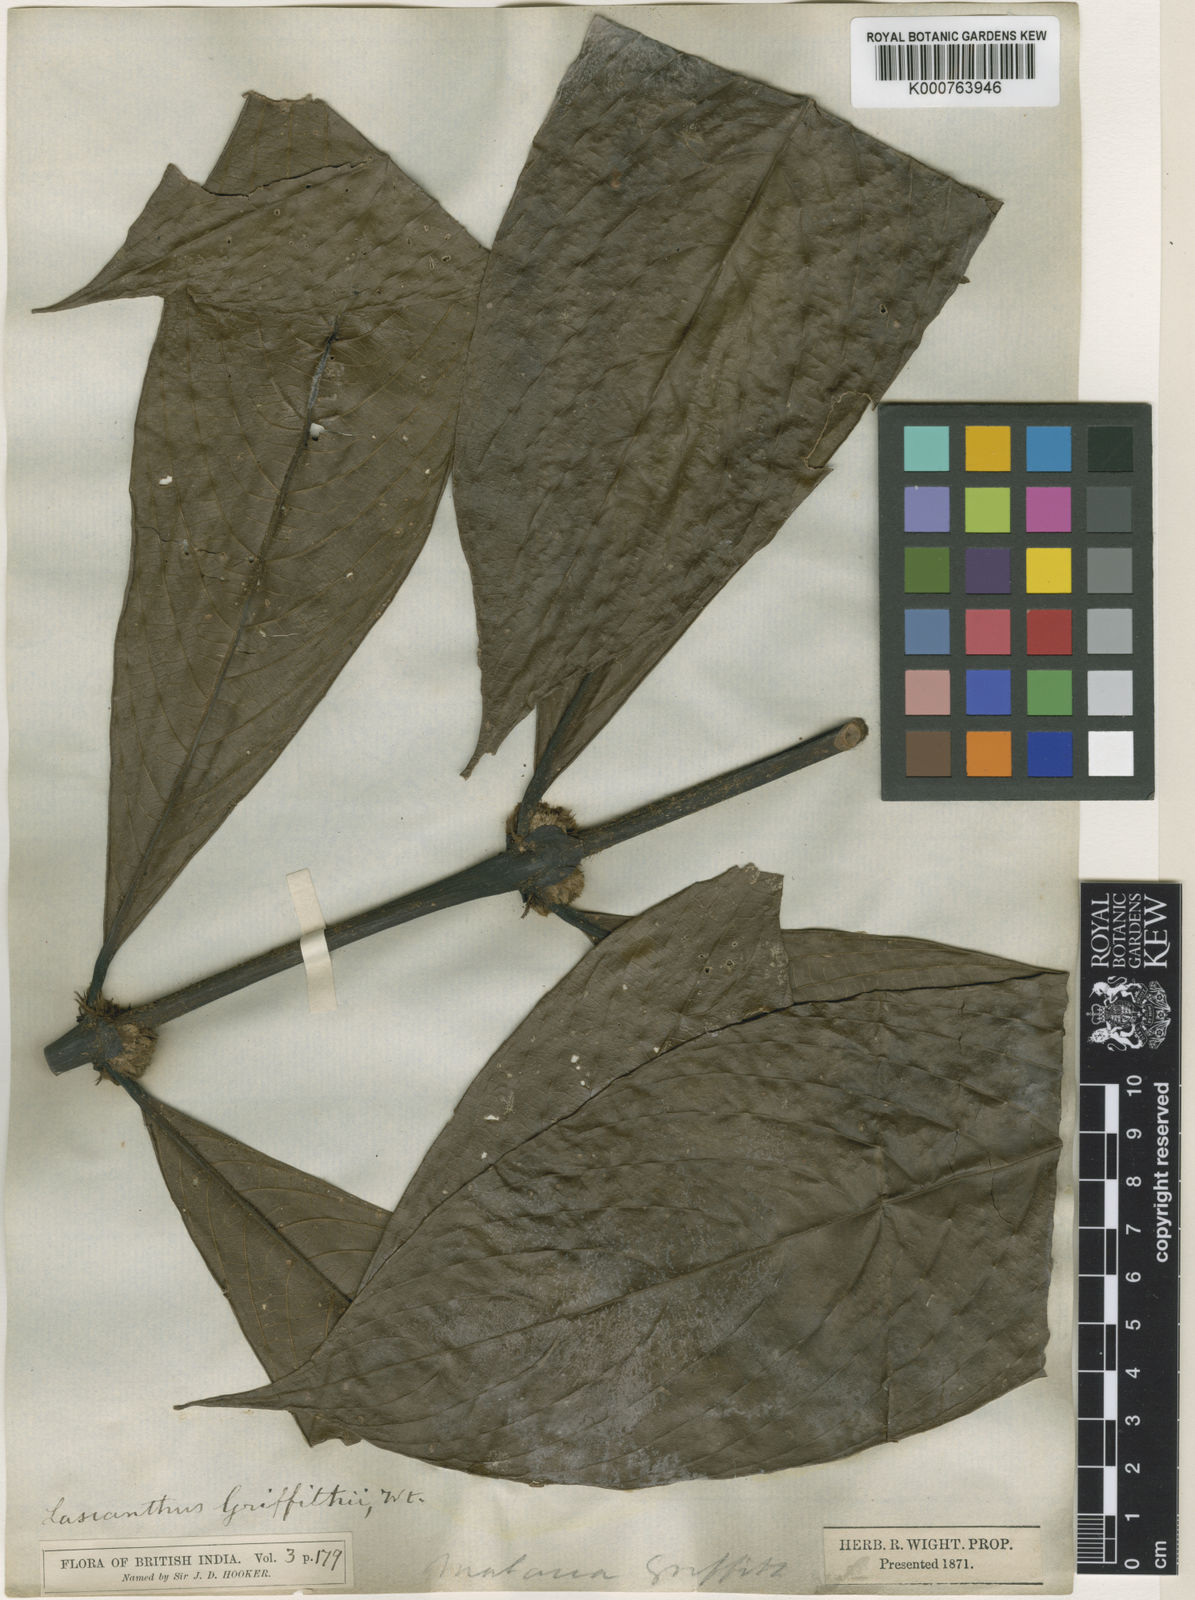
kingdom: Plantae
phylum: Tracheophyta
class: Magnoliopsida
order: Gentianales
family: Rubiaceae
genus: Lasianthus
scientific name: Lasianthus griffithii
